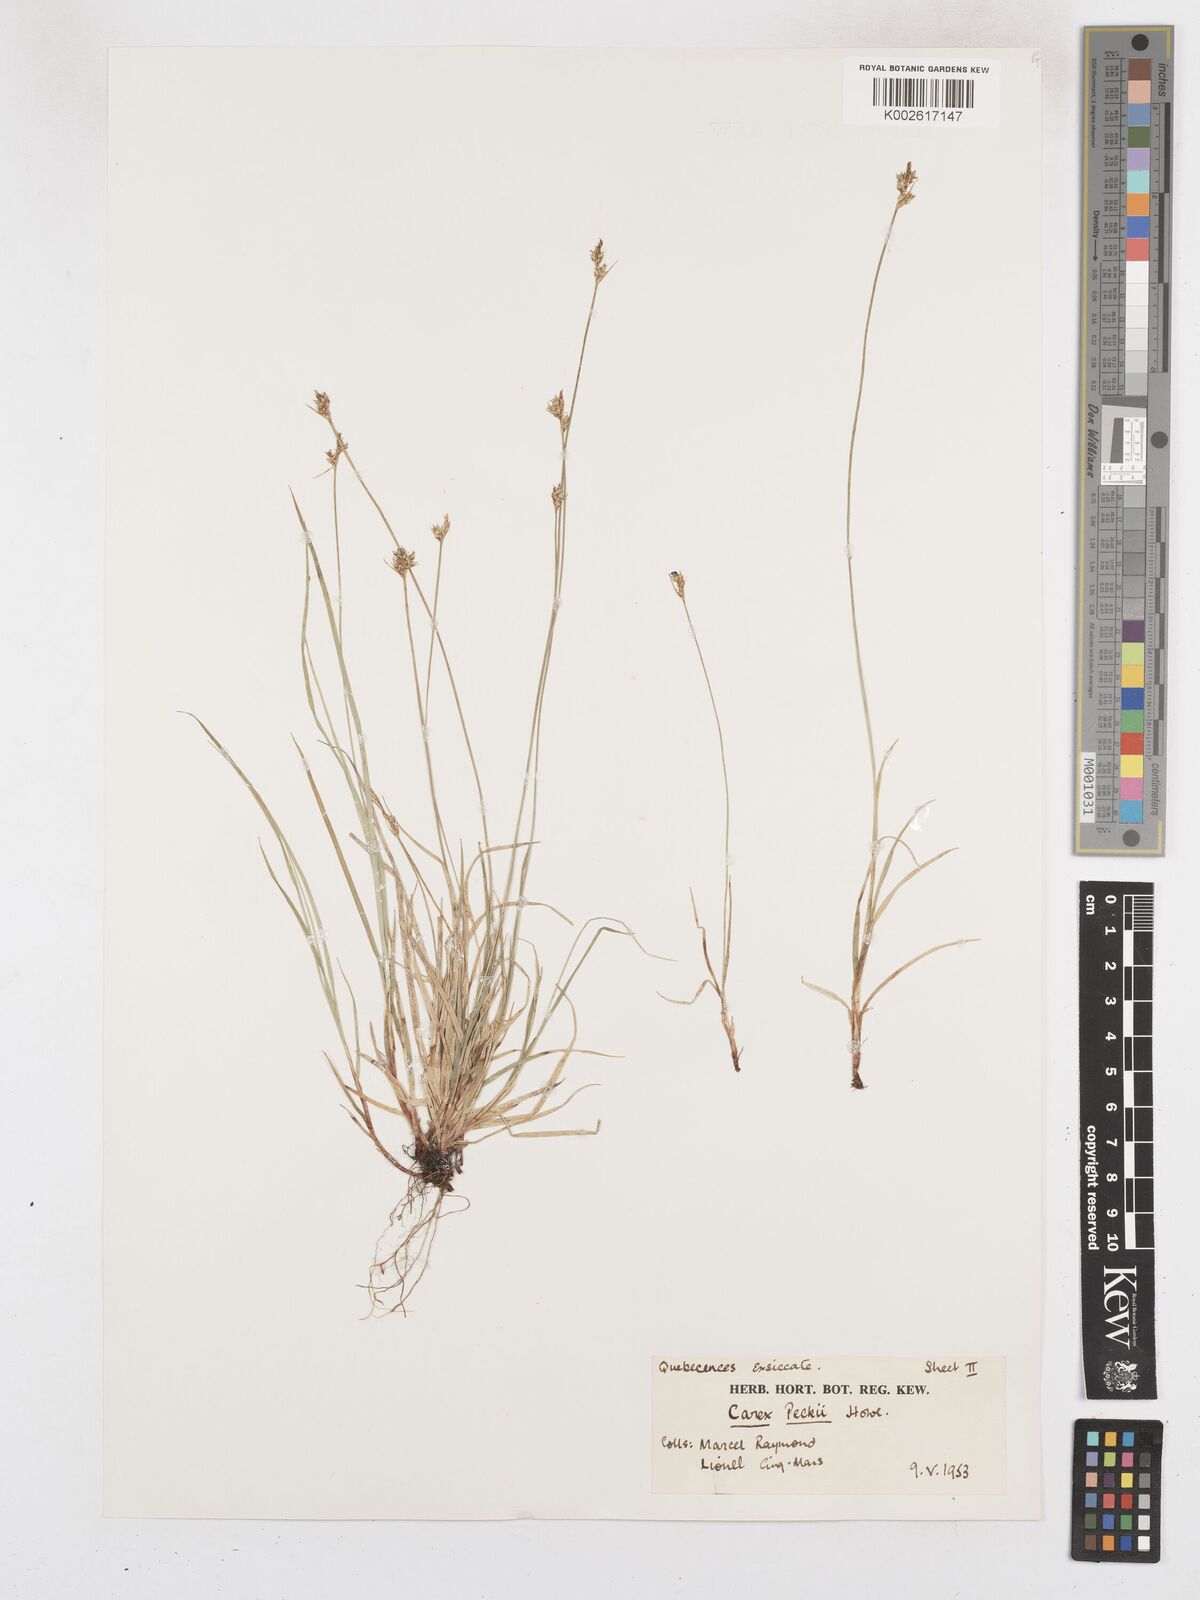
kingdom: Plantae
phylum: Tracheophyta
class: Liliopsida
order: Poales
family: Cyperaceae
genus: Carex
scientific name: Carex peckii
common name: Peck's oak sedge
